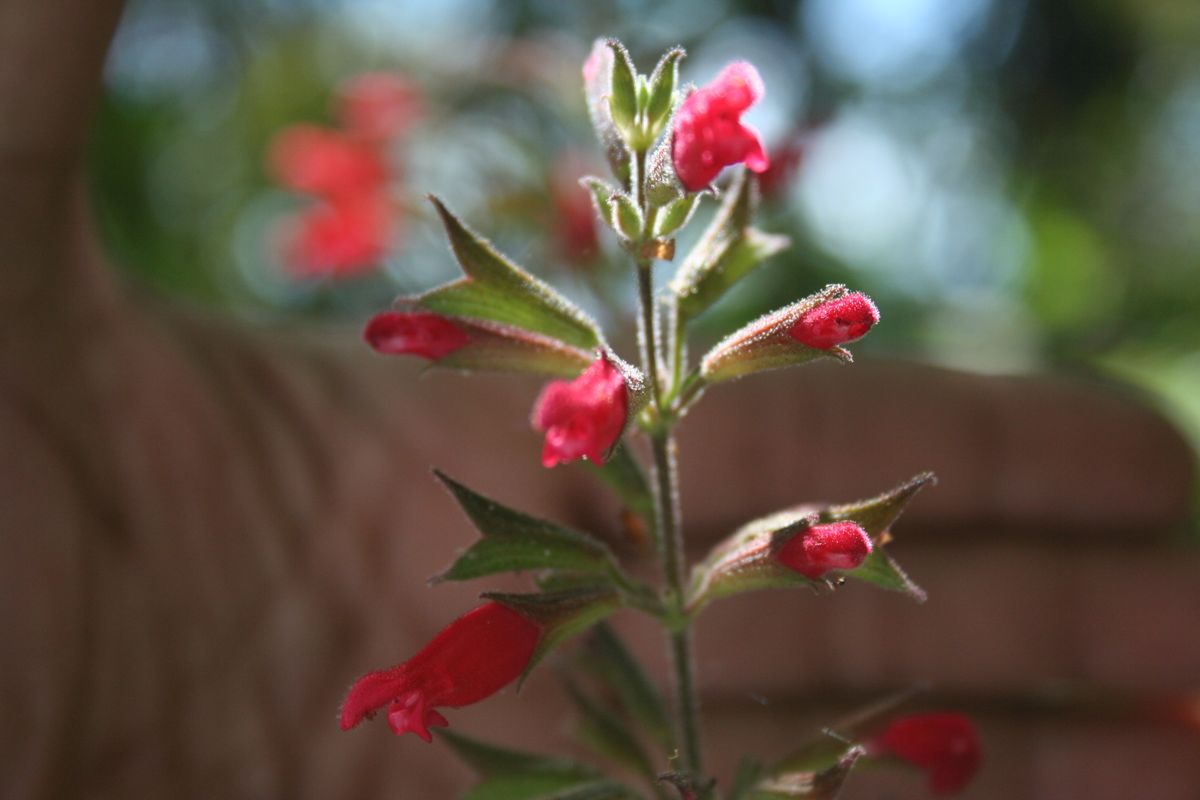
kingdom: Plantae
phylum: Tracheophyta
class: Magnoliopsida
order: Lamiales
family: Lamiaceae
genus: Salvia
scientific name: Salvia karwinskii
